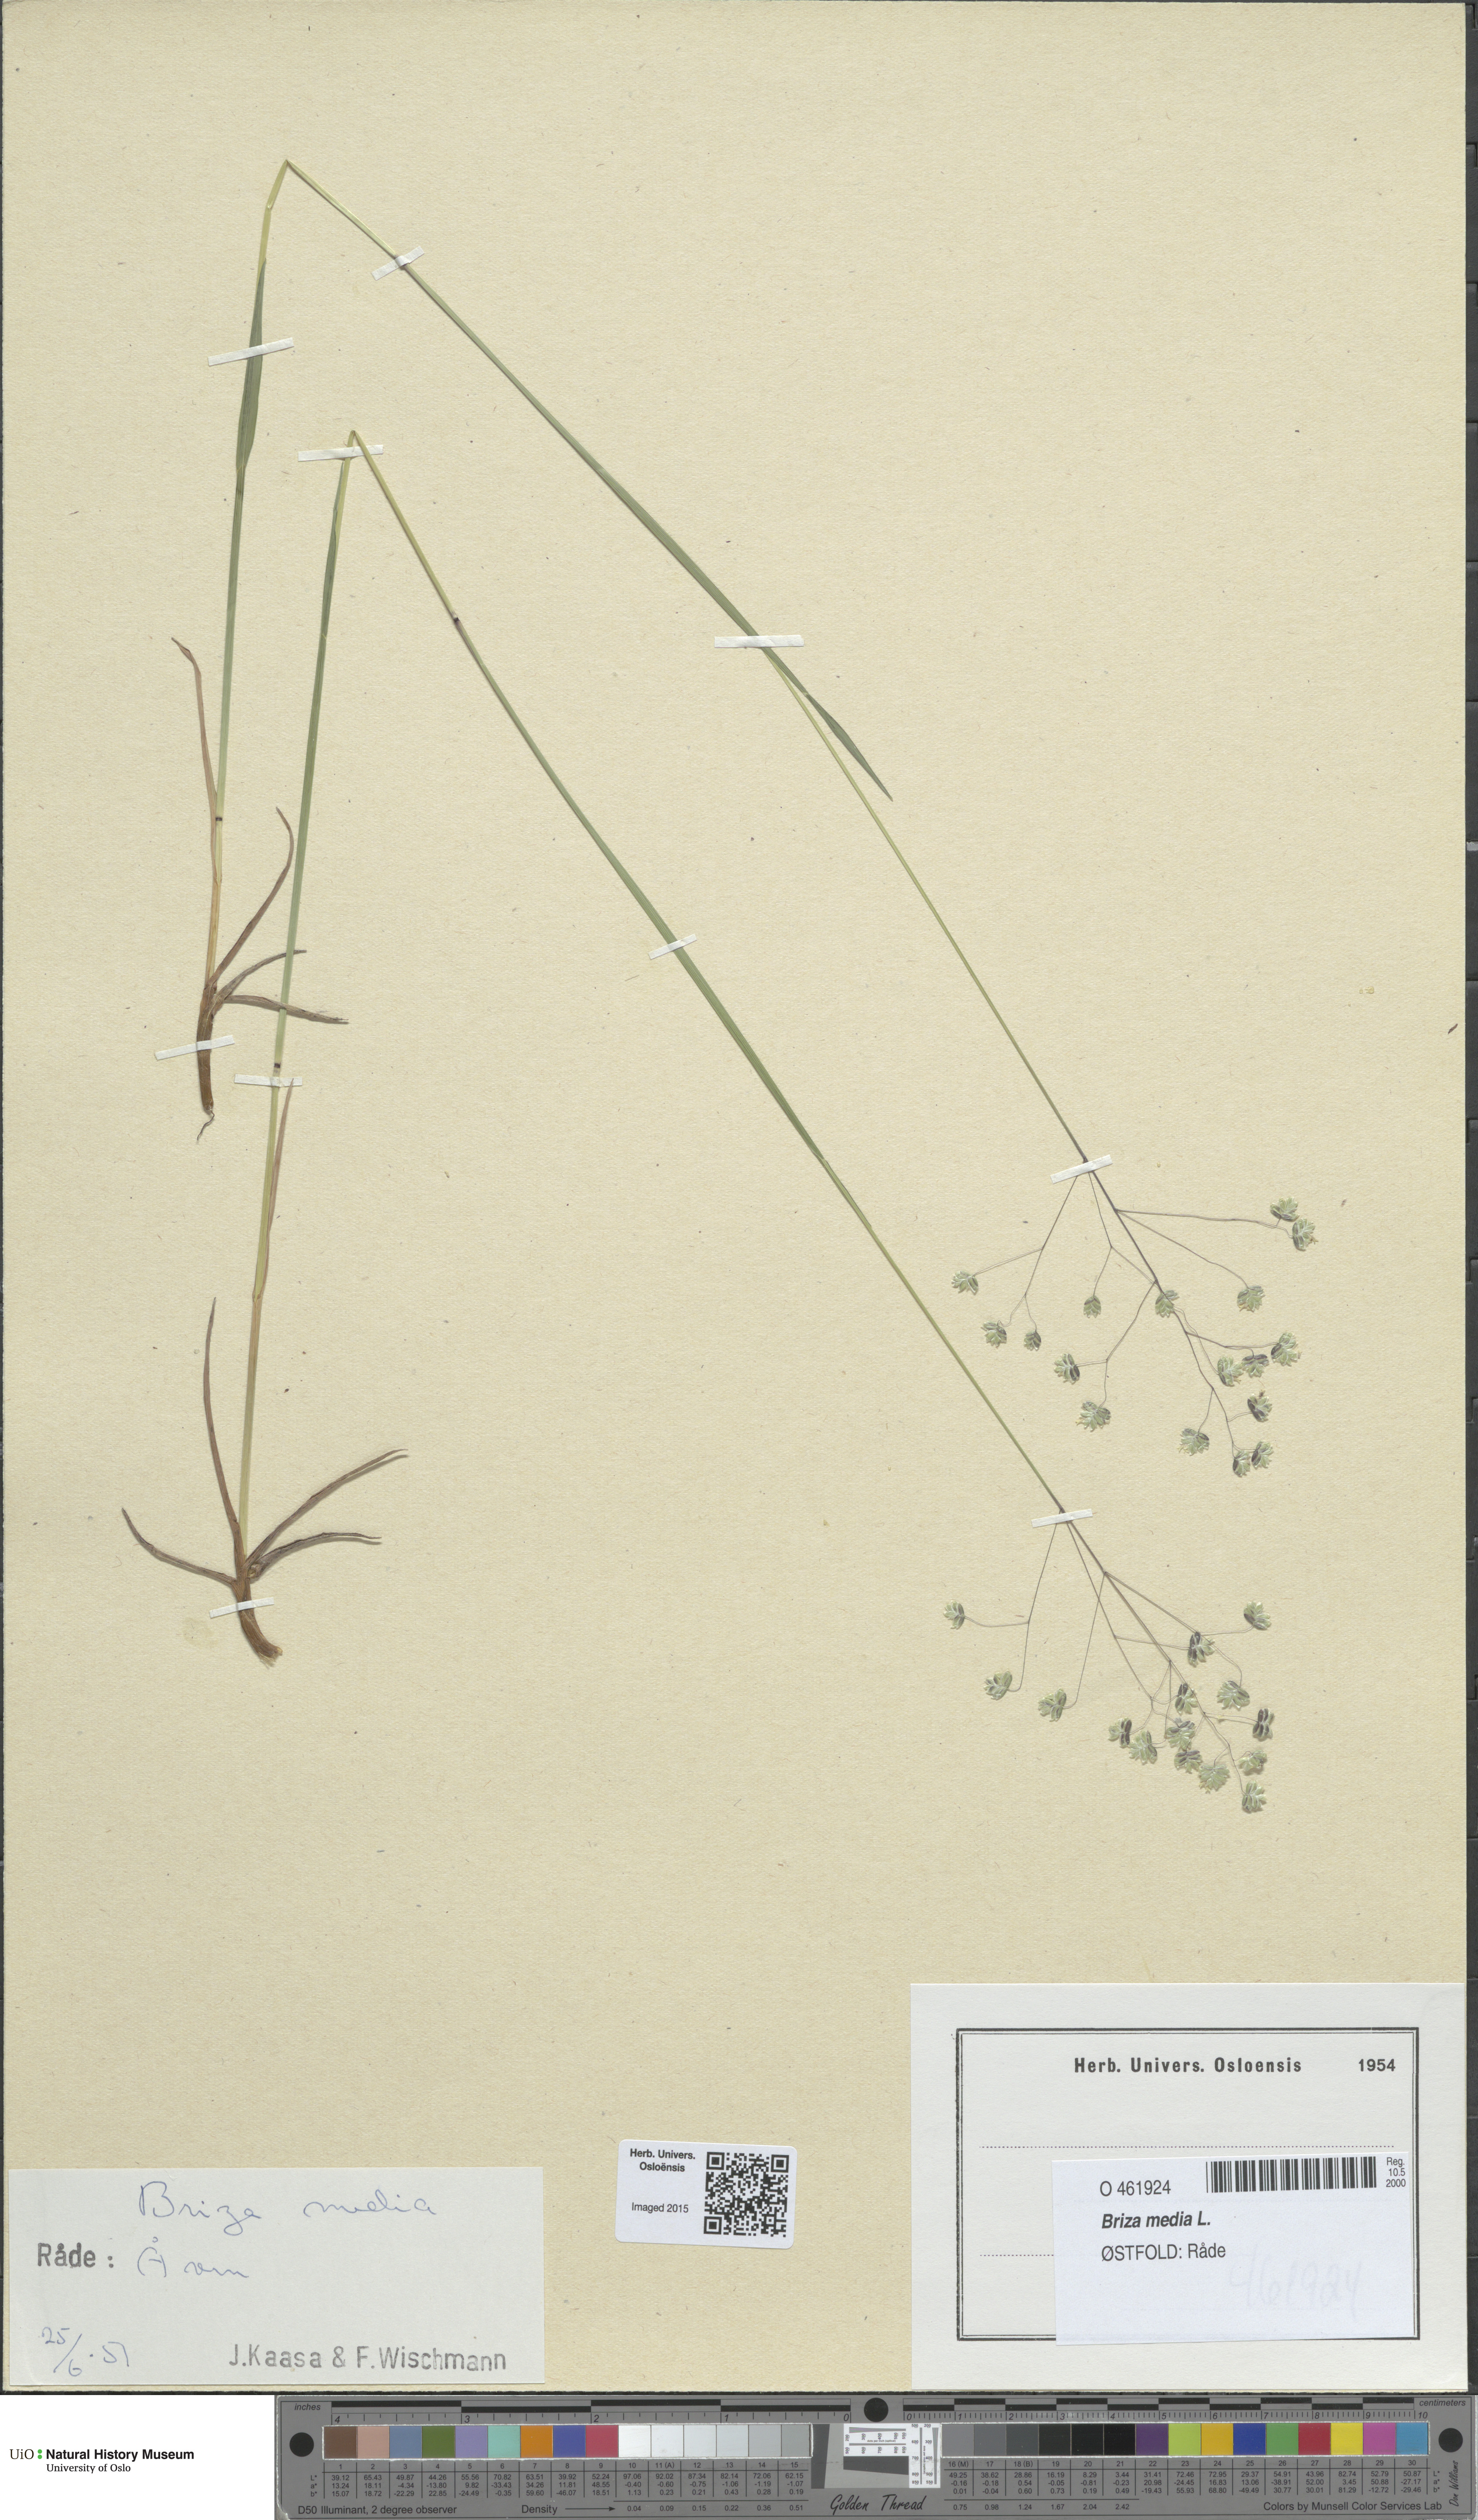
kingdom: Plantae
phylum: Tracheophyta
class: Liliopsida
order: Poales
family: Poaceae
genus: Briza
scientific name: Briza media
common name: Quaking grass
